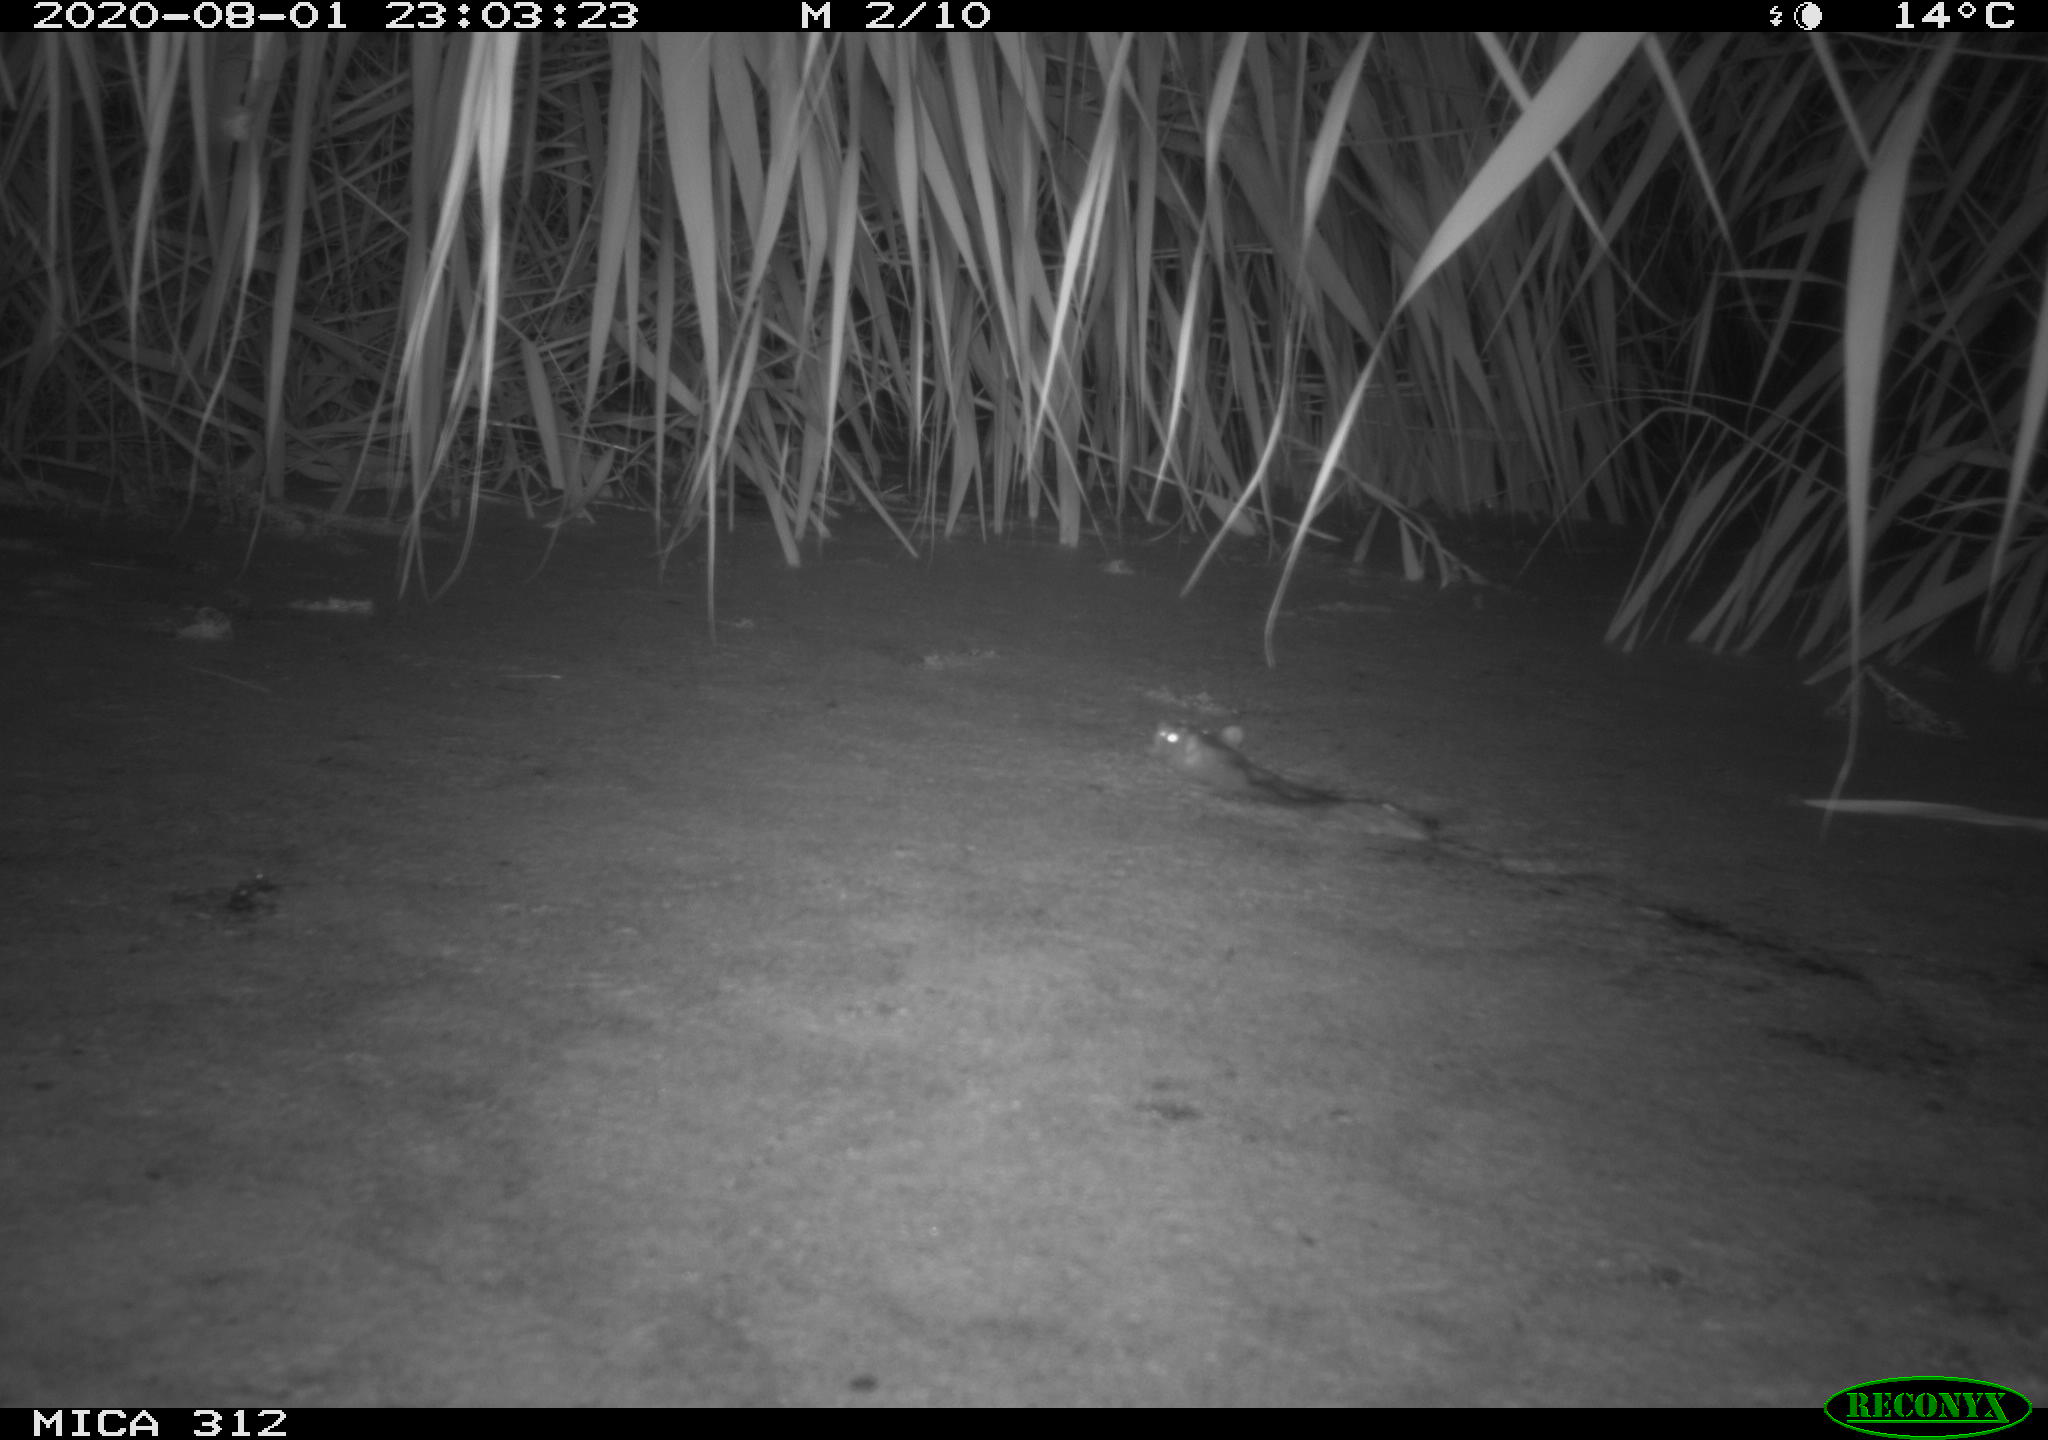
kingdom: Animalia
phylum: Chordata
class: Mammalia
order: Rodentia
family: Muridae
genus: Rattus
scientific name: Rattus norvegicus
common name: Brown rat
